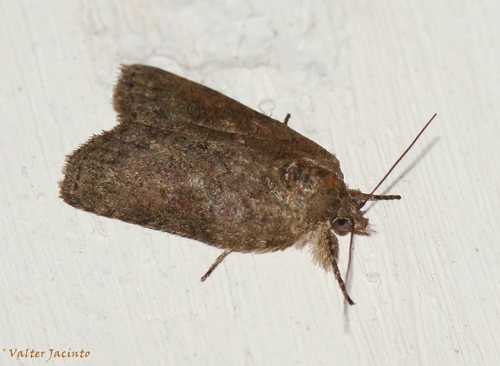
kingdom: Animalia
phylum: Arthropoda
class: Insecta
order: Lepidoptera
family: Nolidae
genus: Nycteola
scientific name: Nycteola columbana
